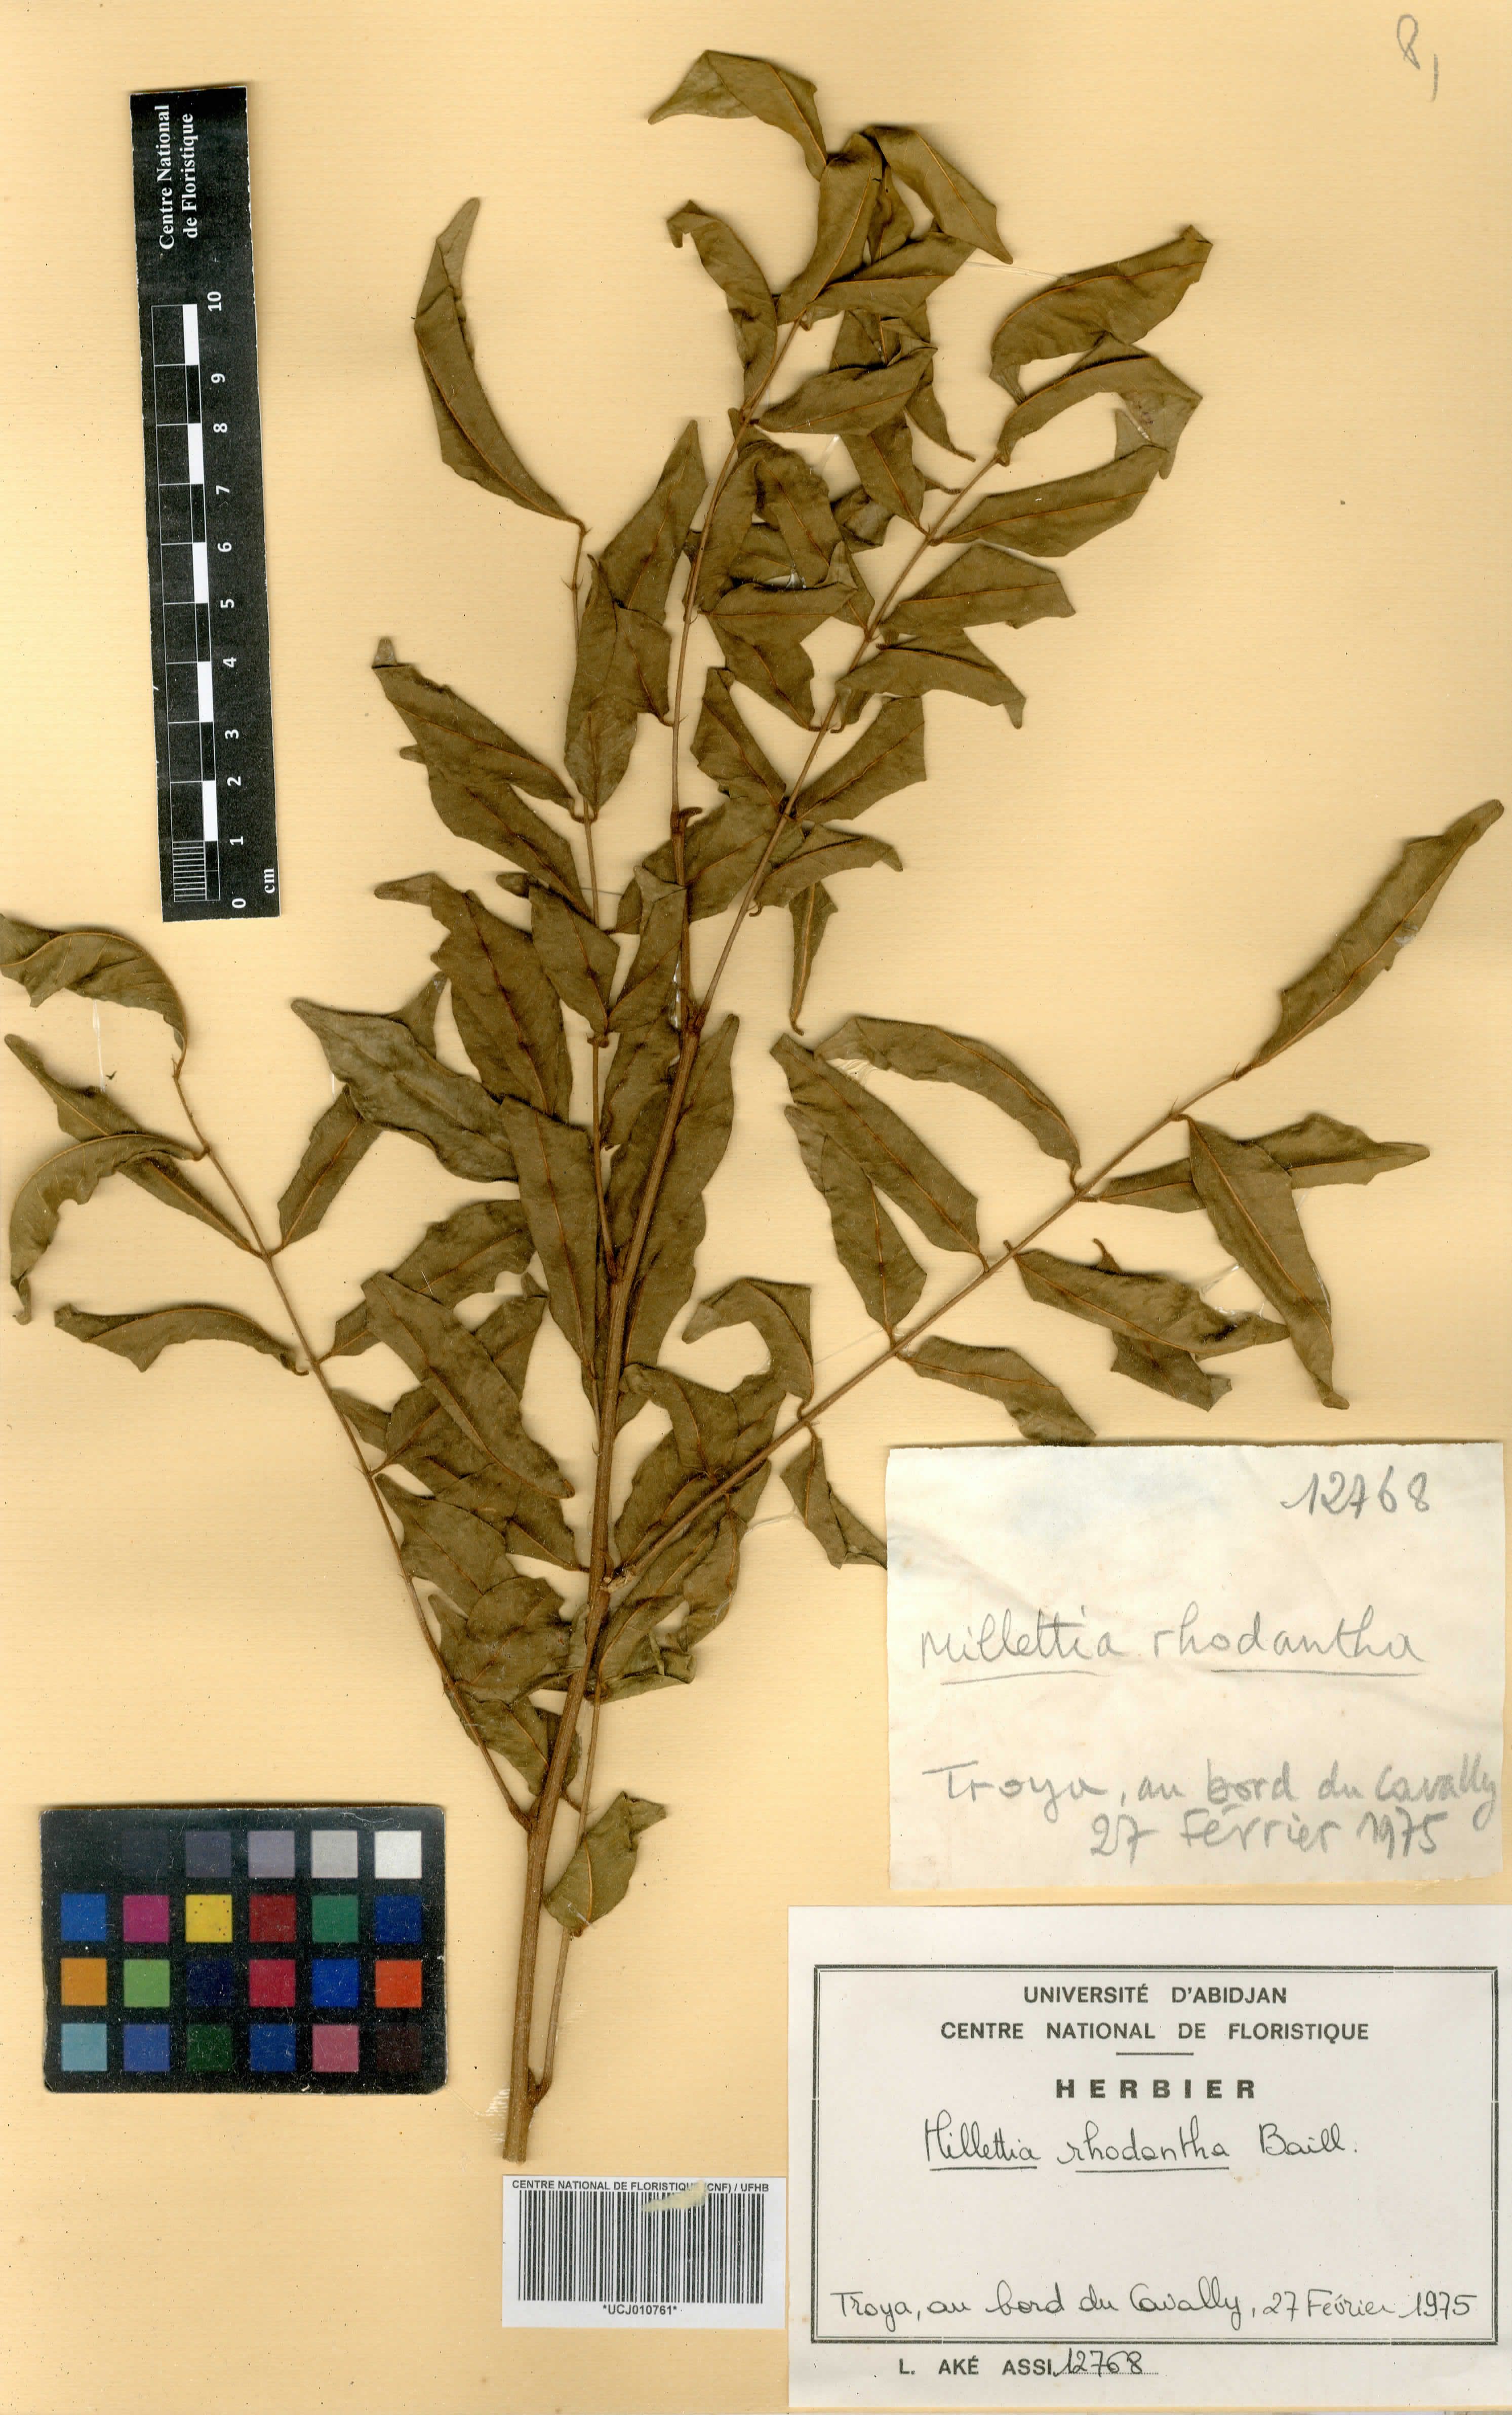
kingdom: Plantae
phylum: Tracheophyta
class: Magnoliopsida
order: Fabales
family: Fabaceae
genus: Millettia
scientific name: Millettia rhodantha
